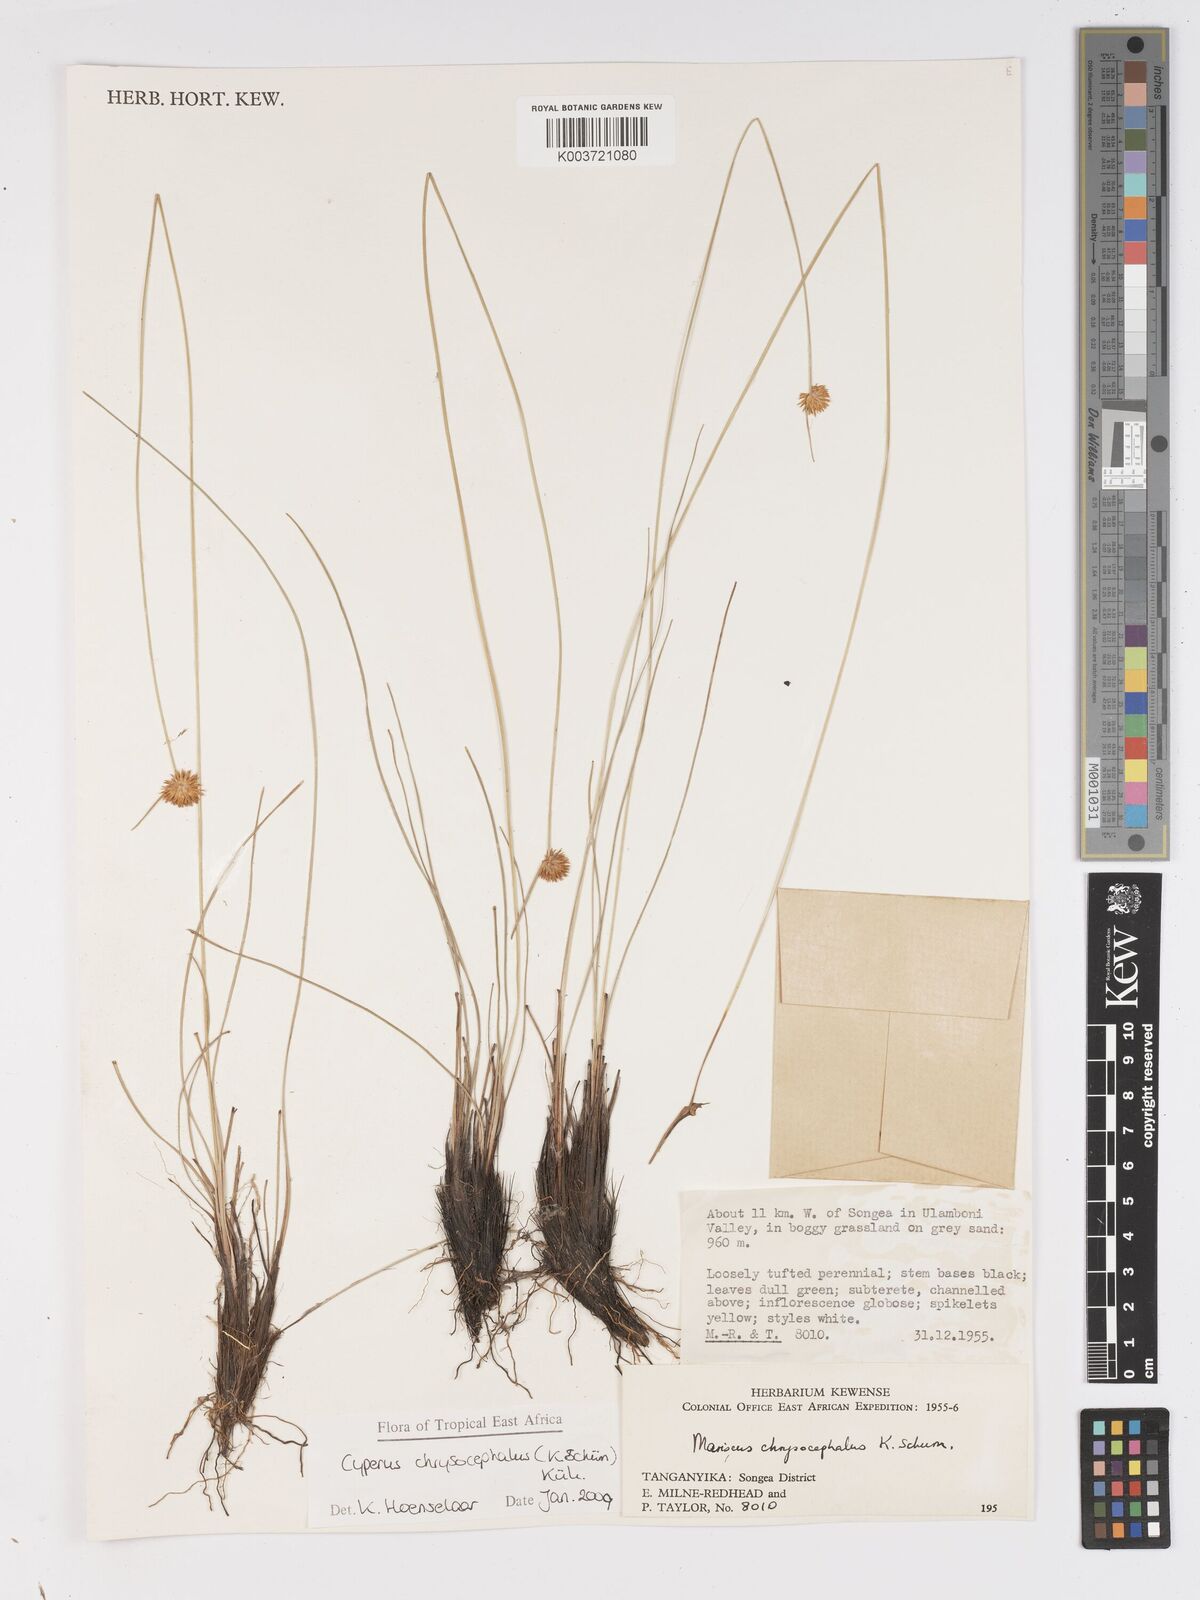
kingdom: Plantae
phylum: Tracheophyta
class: Liliopsida
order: Poales
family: Cyperaceae
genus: Cyperus
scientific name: Cyperus chrysocephalus
